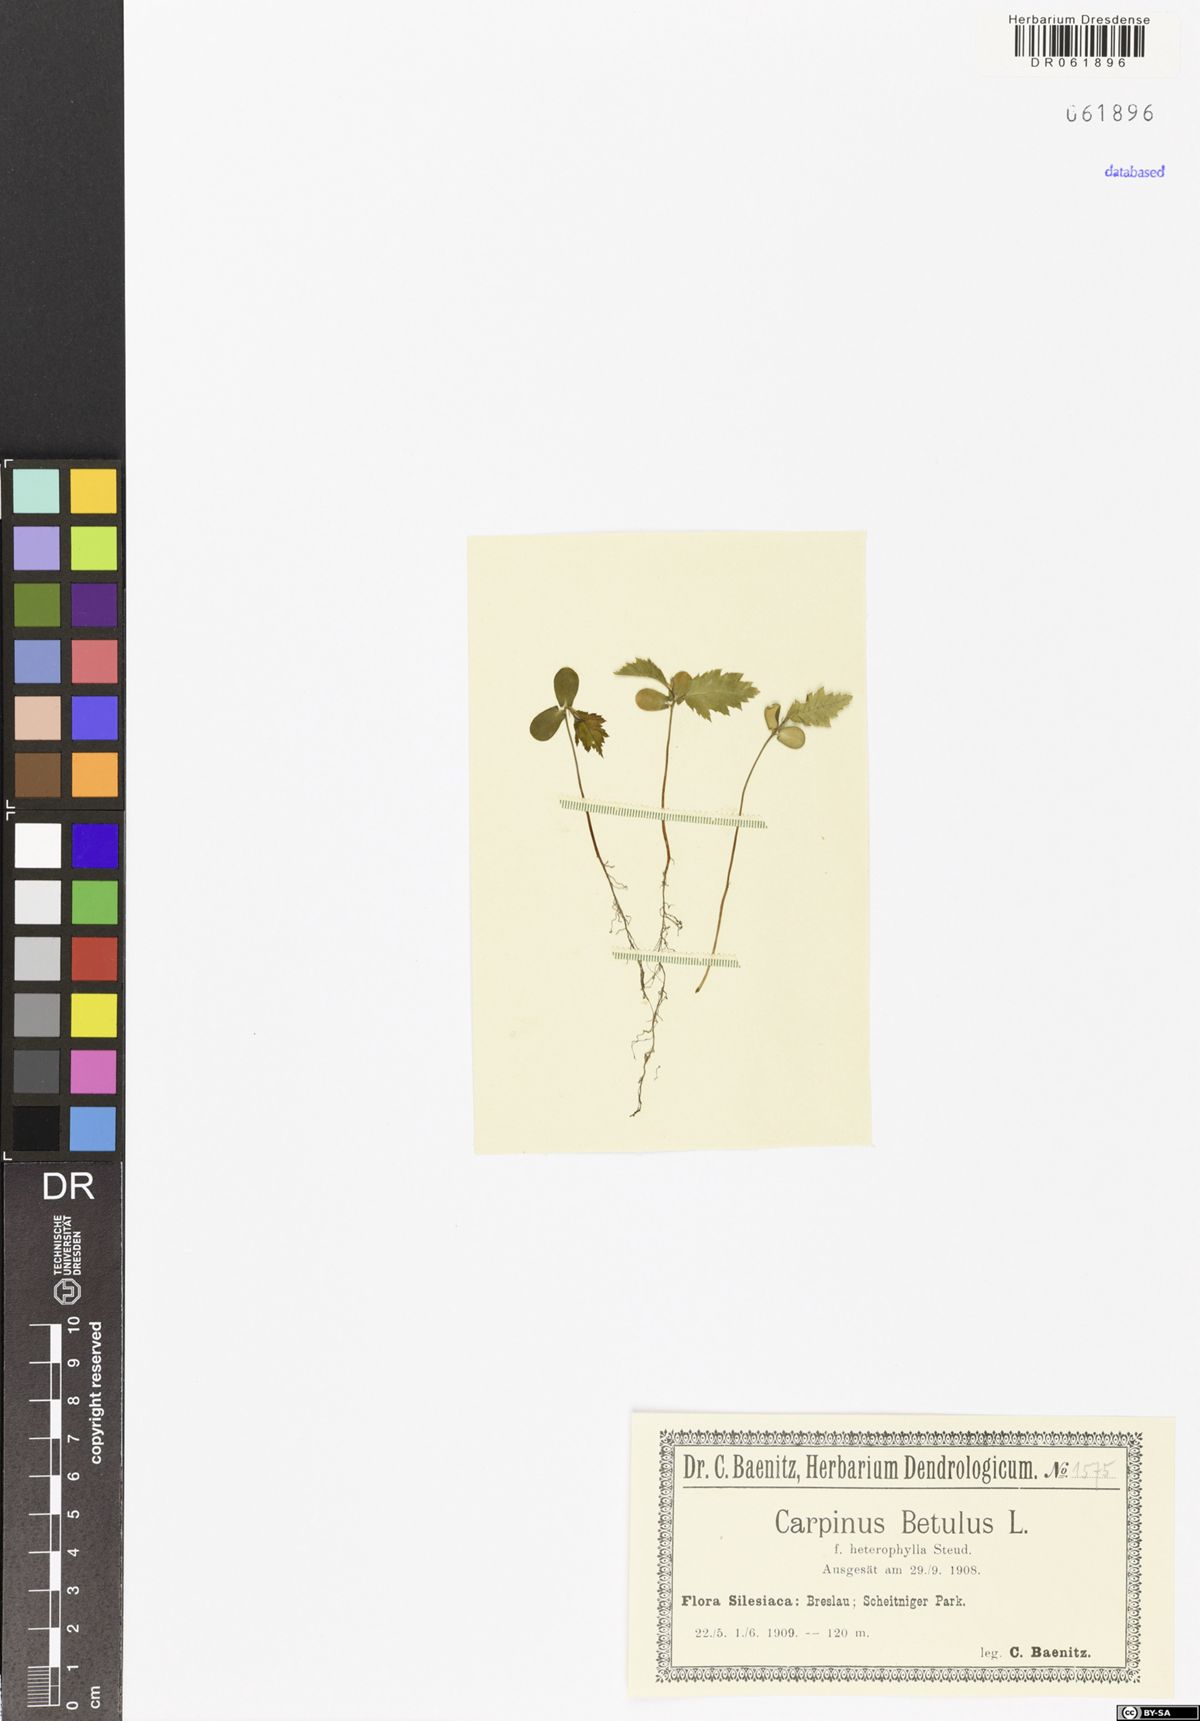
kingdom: Plantae
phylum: Tracheophyta
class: Magnoliopsida
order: Fagales
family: Betulaceae
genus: Carpinus
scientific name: Carpinus betulus
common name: Hornbeam
